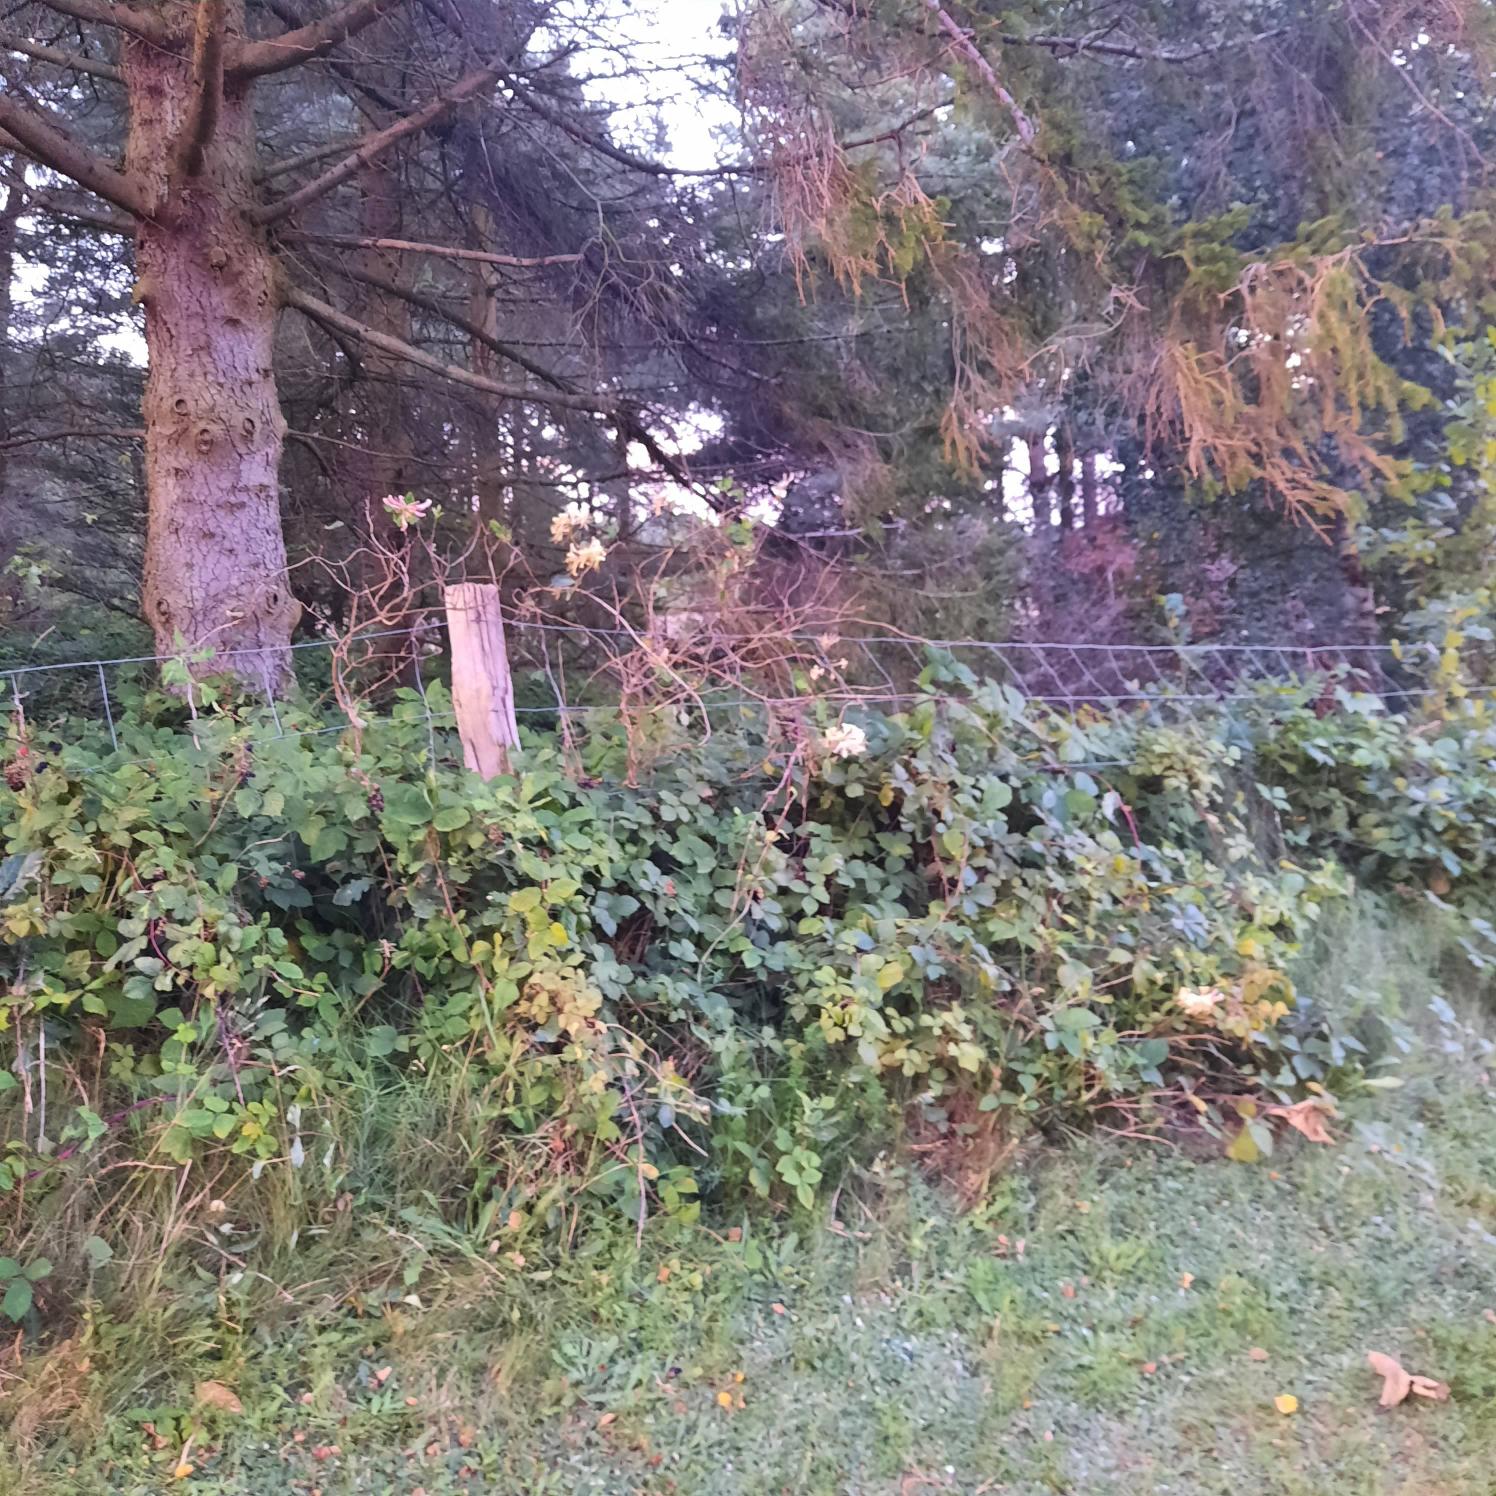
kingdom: Plantae
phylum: Tracheophyta
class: Magnoliopsida
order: Dipsacales
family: Caprifoliaceae
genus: Lonicera
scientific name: Lonicera periclymenum
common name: Almindelig gedeblad
